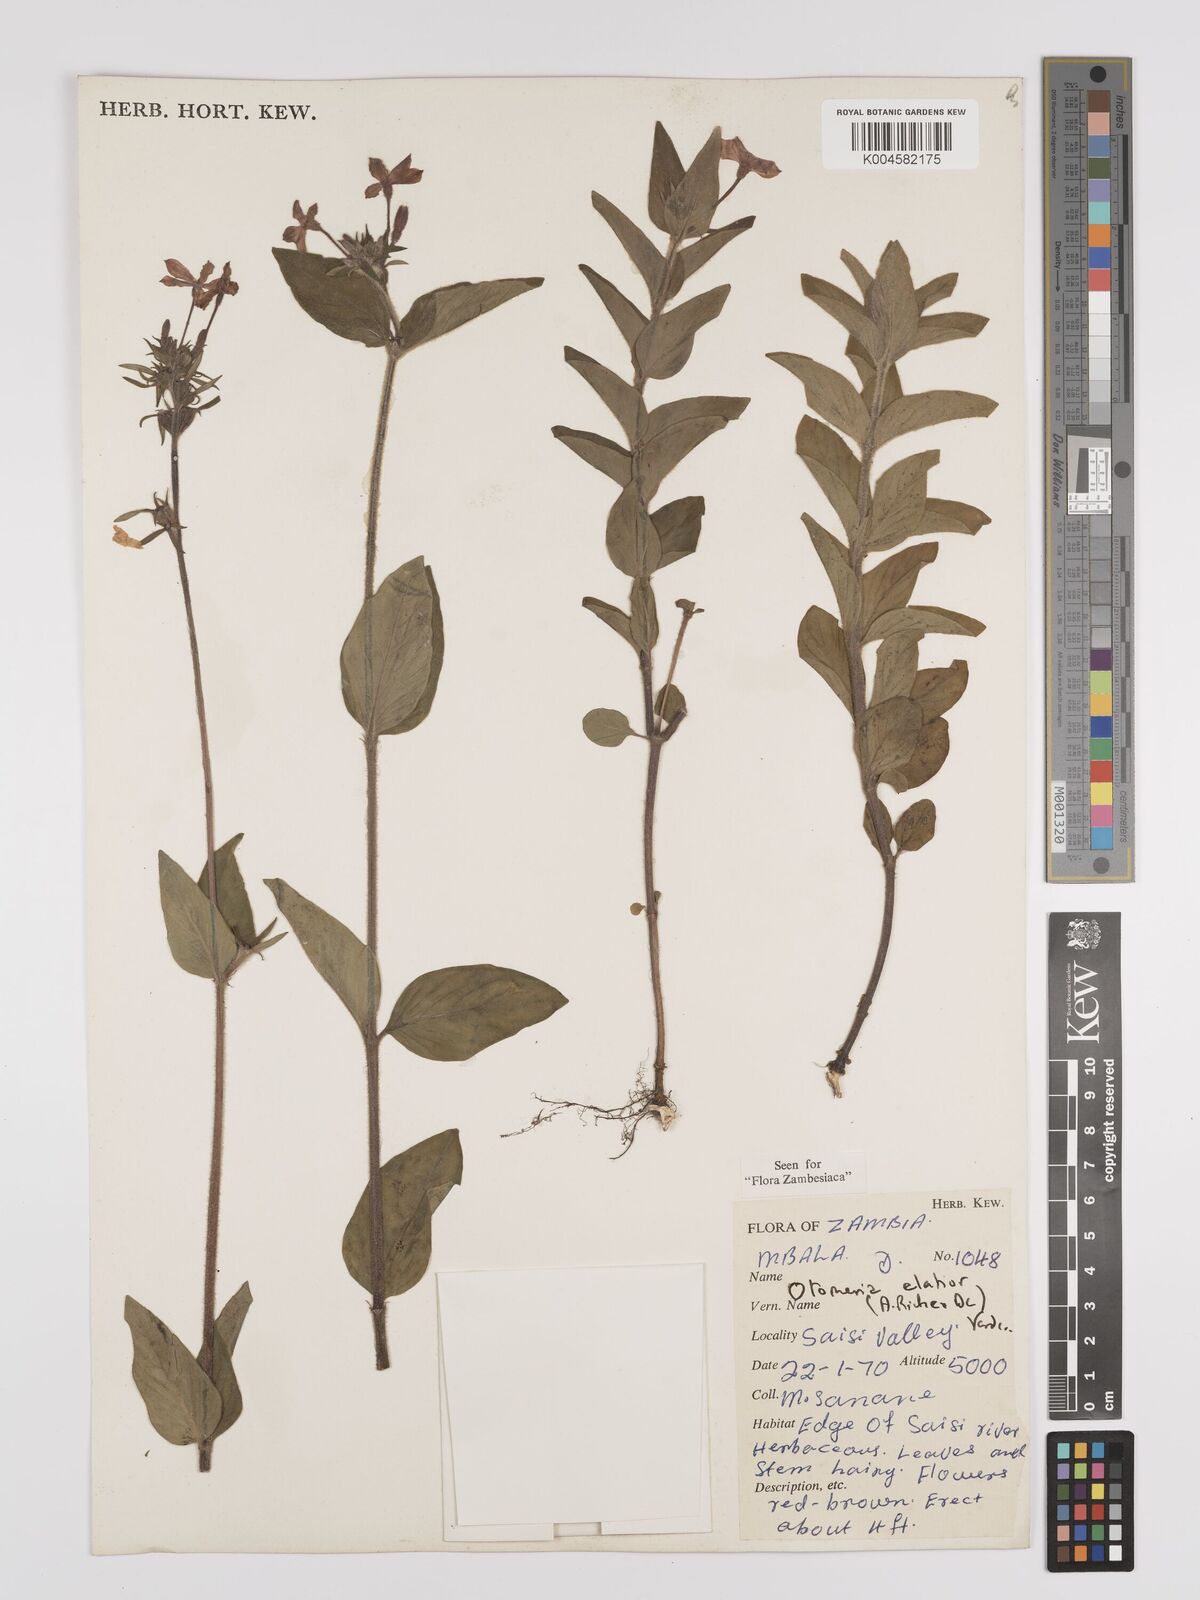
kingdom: Plantae
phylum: Tracheophyta
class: Magnoliopsida
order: Gentianales
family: Rubiaceae
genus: Otomeria
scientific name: Otomeria elatior
